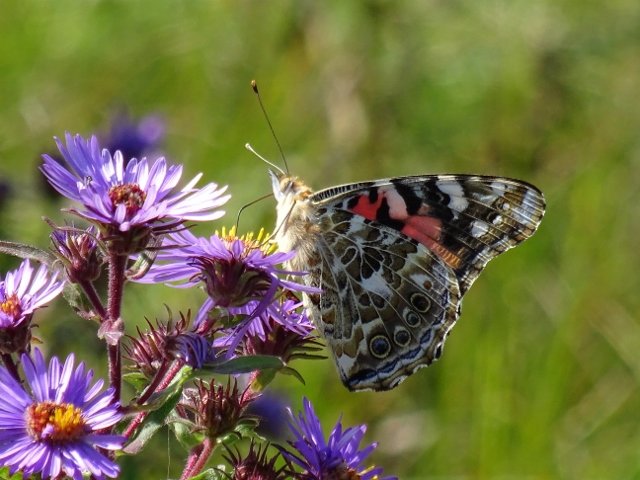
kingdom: Animalia
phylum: Arthropoda
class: Insecta
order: Lepidoptera
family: Nymphalidae
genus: Vanessa
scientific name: Vanessa cardui
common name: Painted Lady
